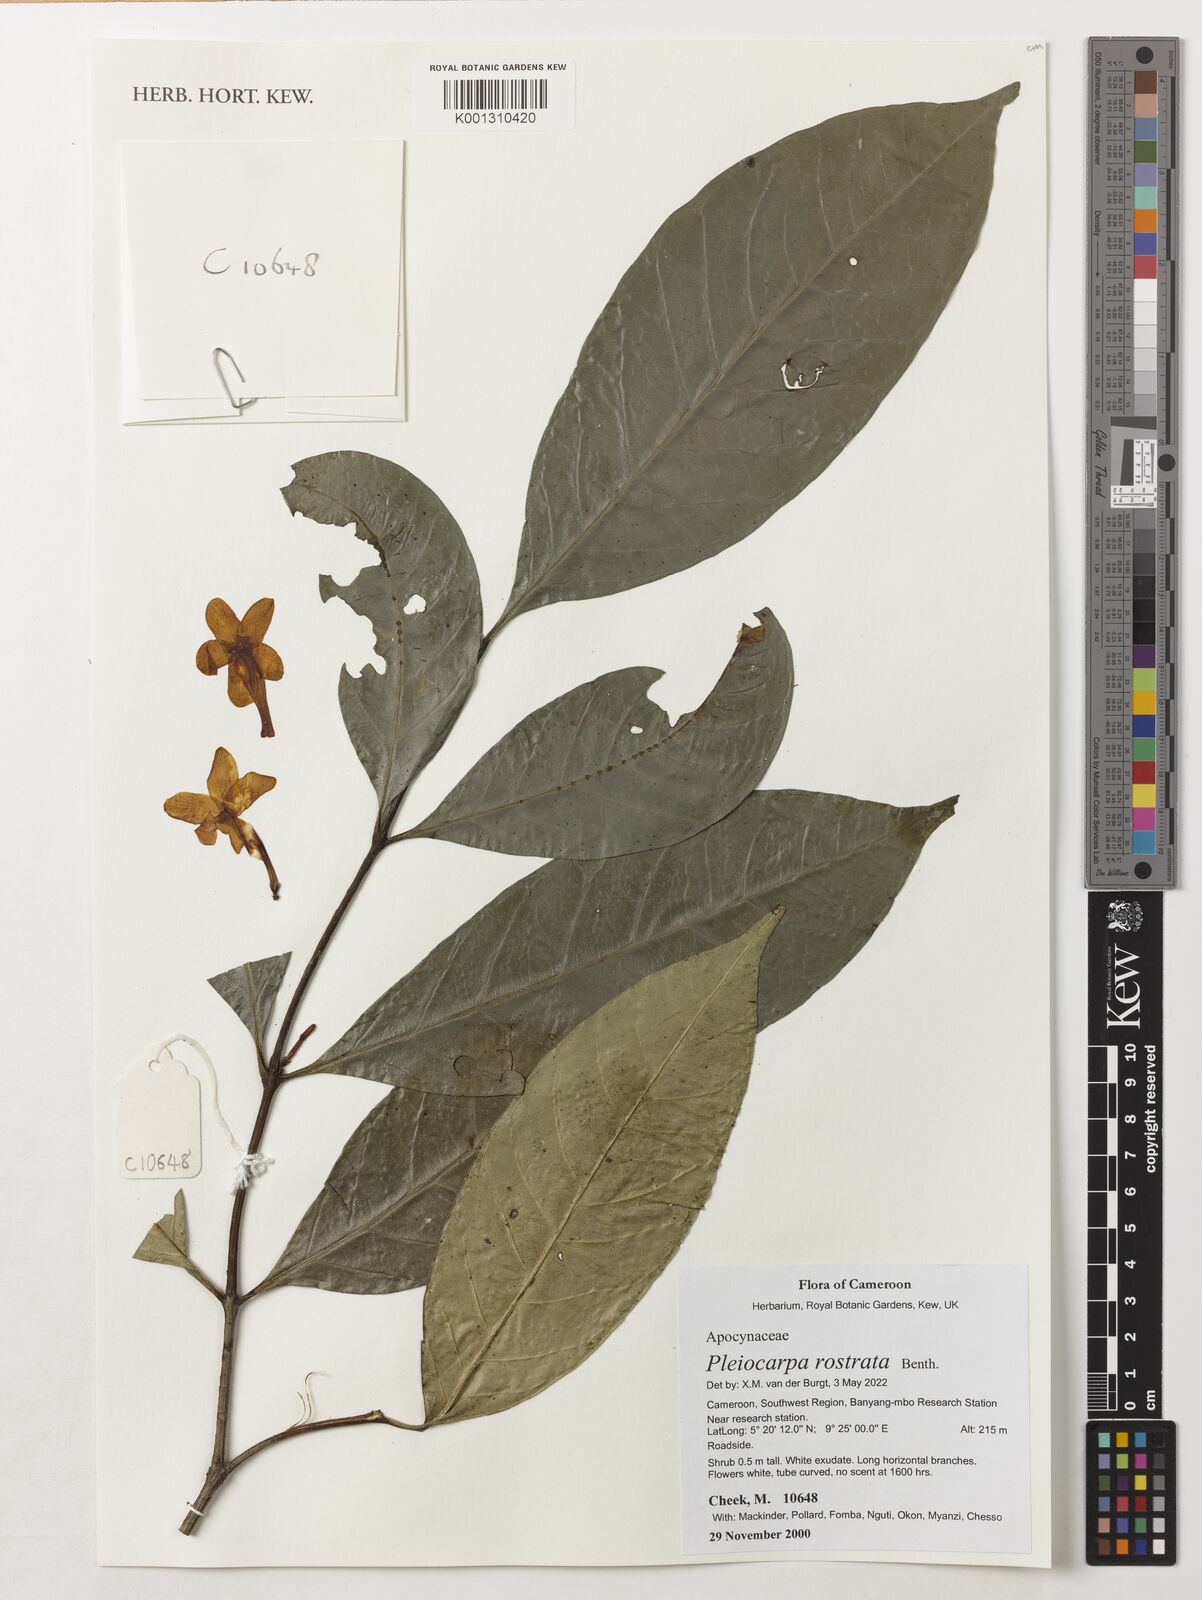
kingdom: Plantae
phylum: Tracheophyta
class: Magnoliopsida
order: Gentianales
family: Apocynaceae
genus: Pleiocarpa
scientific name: Pleiocarpa rostrata
